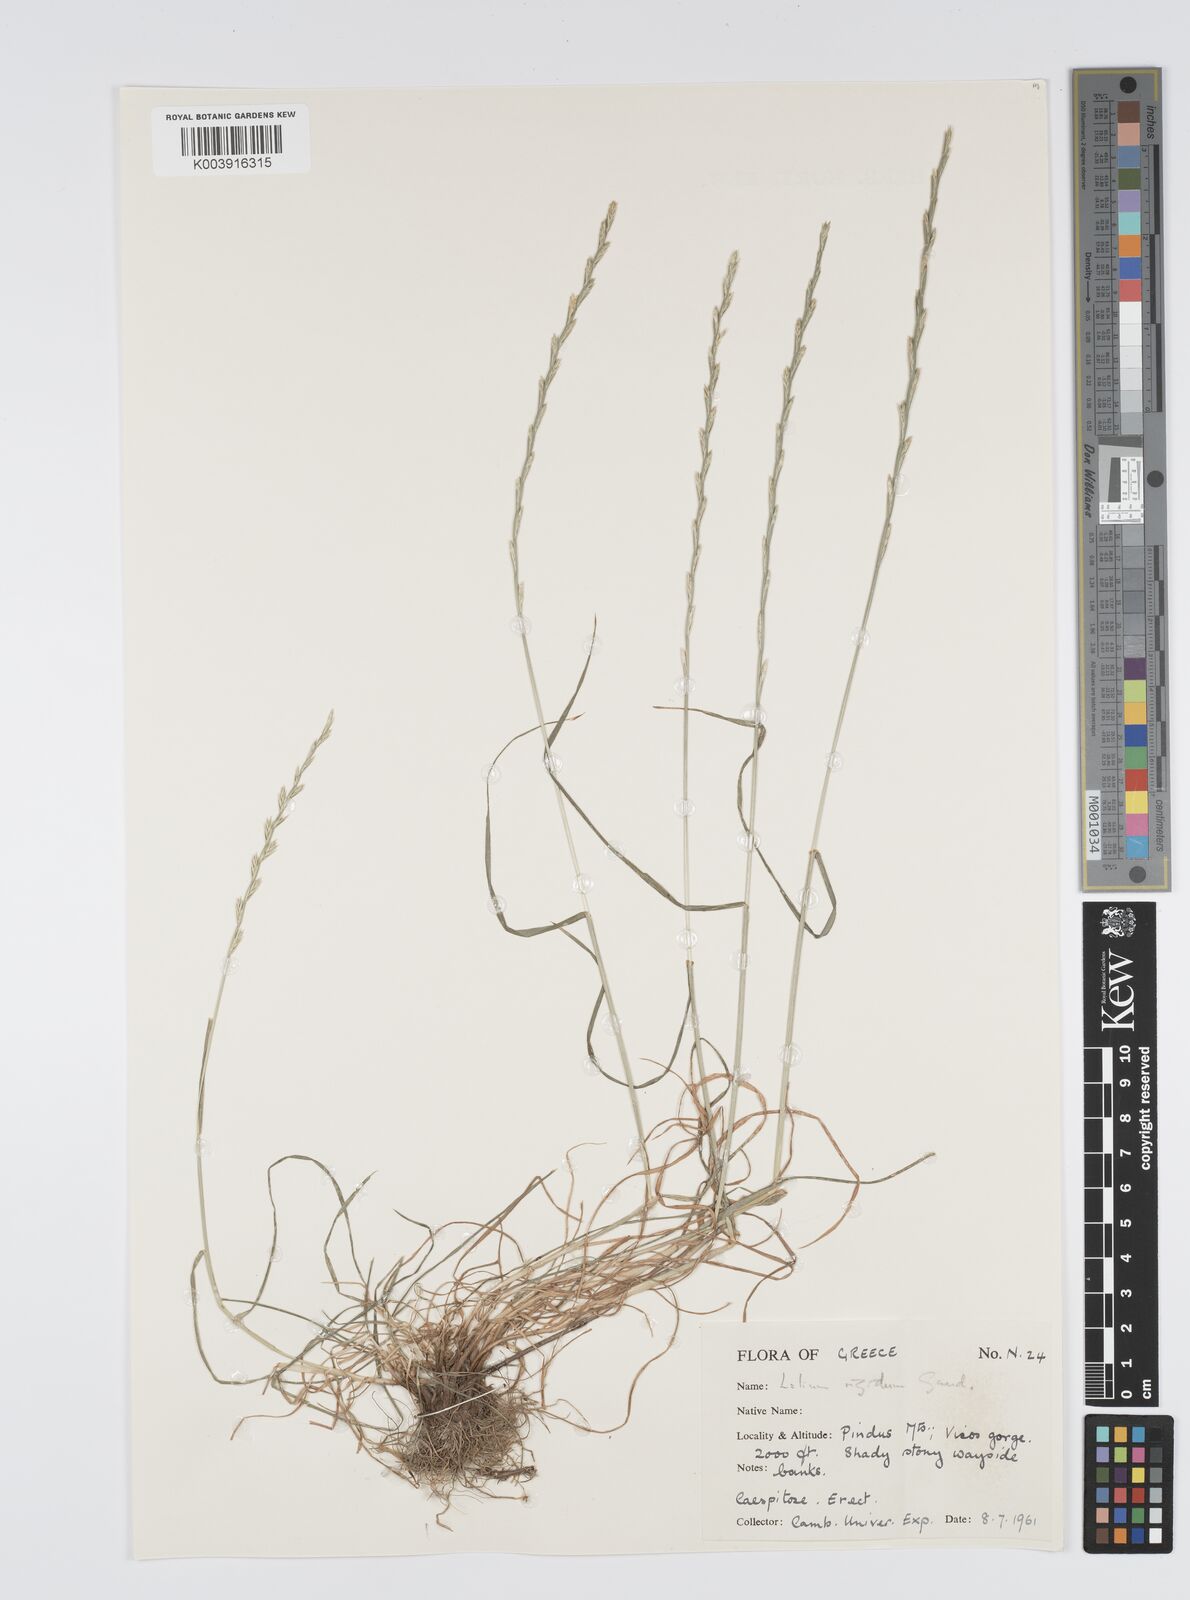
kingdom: Plantae
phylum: Tracheophyta
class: Liliopsida
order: Poales
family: Poaceae
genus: Lolium
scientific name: Lolium rigidum
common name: Wimmera ryegrass
